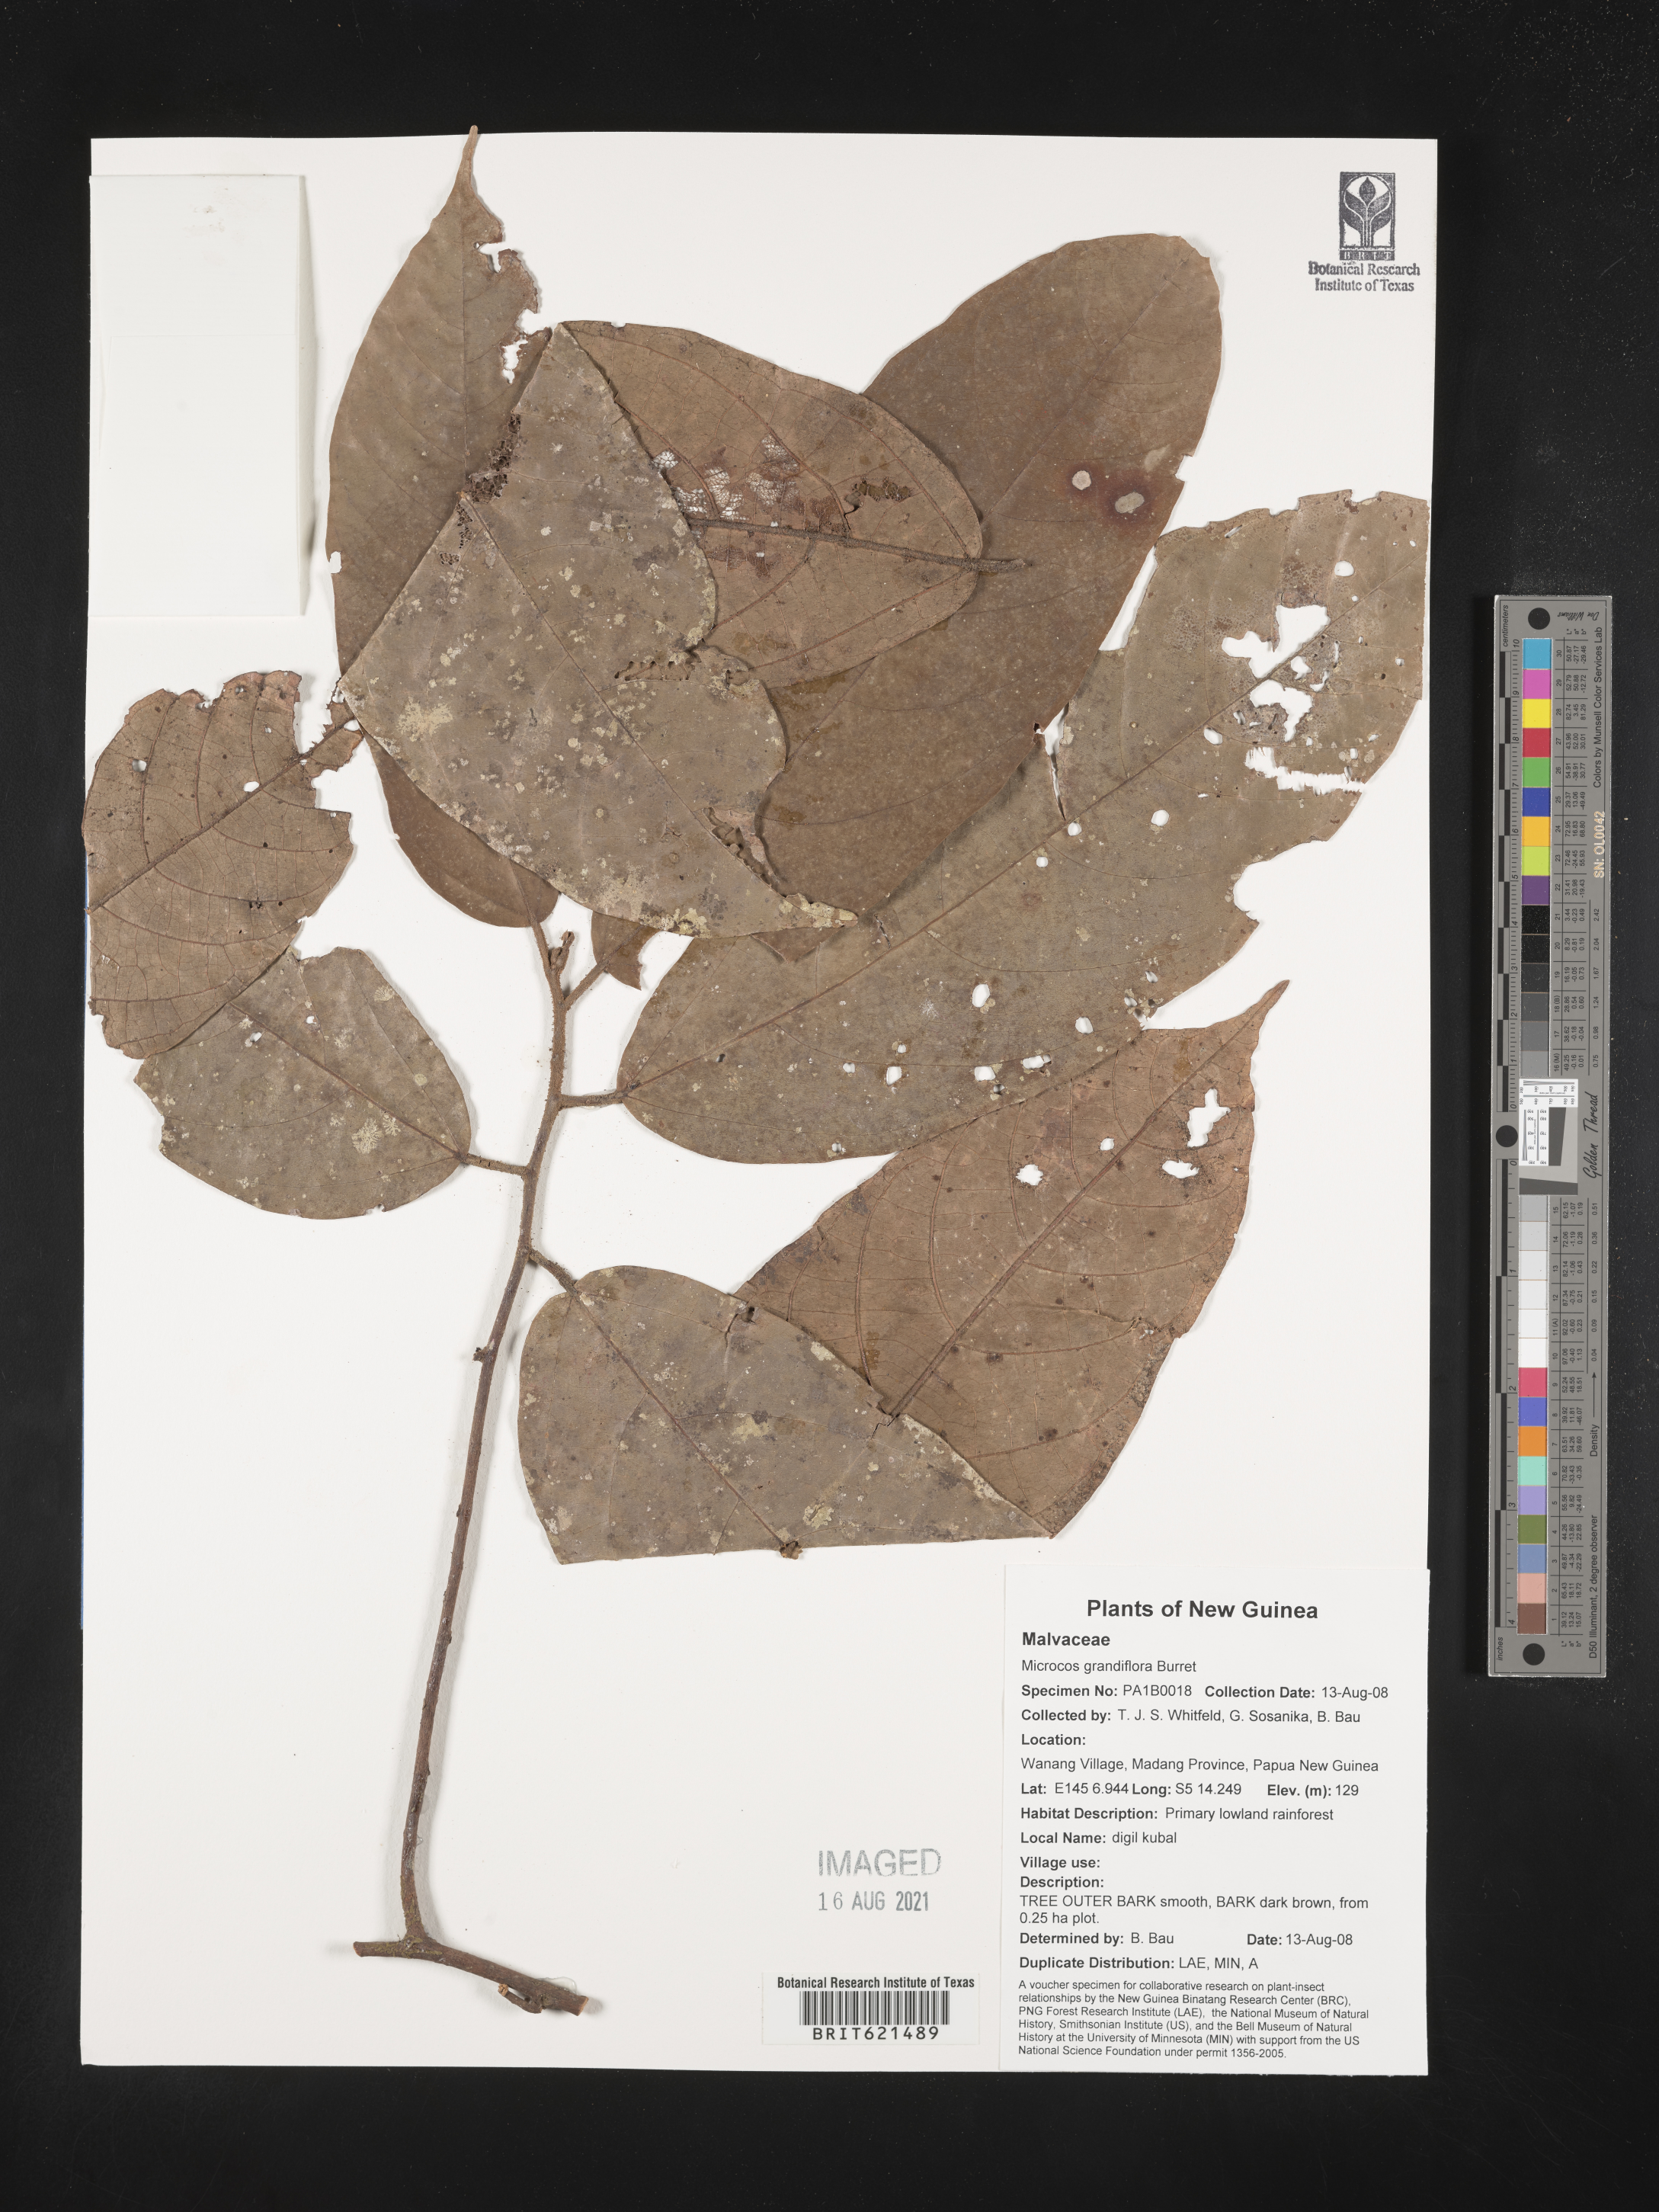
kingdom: Plantae
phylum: Tracheophyta
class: Magnoliopsida
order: Malvales
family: Malvaceae
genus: Microcos
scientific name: Microcos grandiflora
